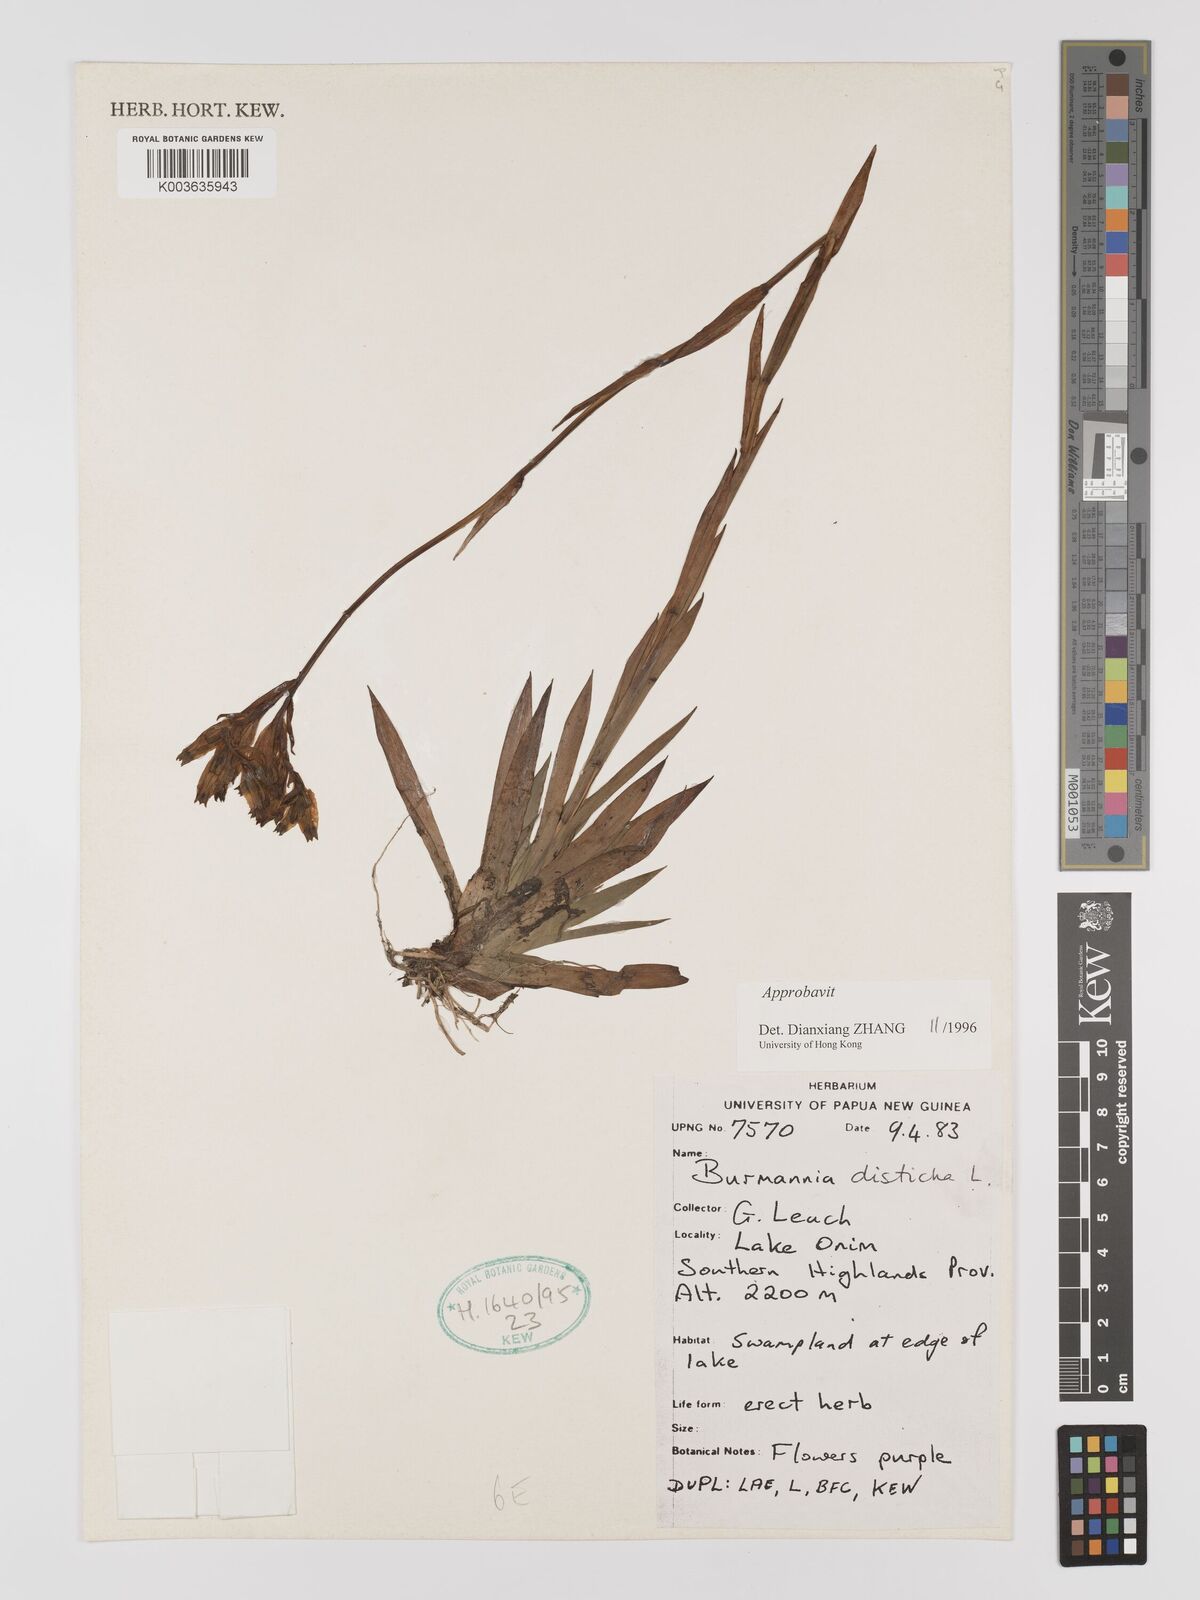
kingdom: Plantae
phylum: Tracheophyta
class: Liliopsida
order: Dioscoreales
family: Burmanniaceae
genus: Burmannia
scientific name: Burmannia disticha
